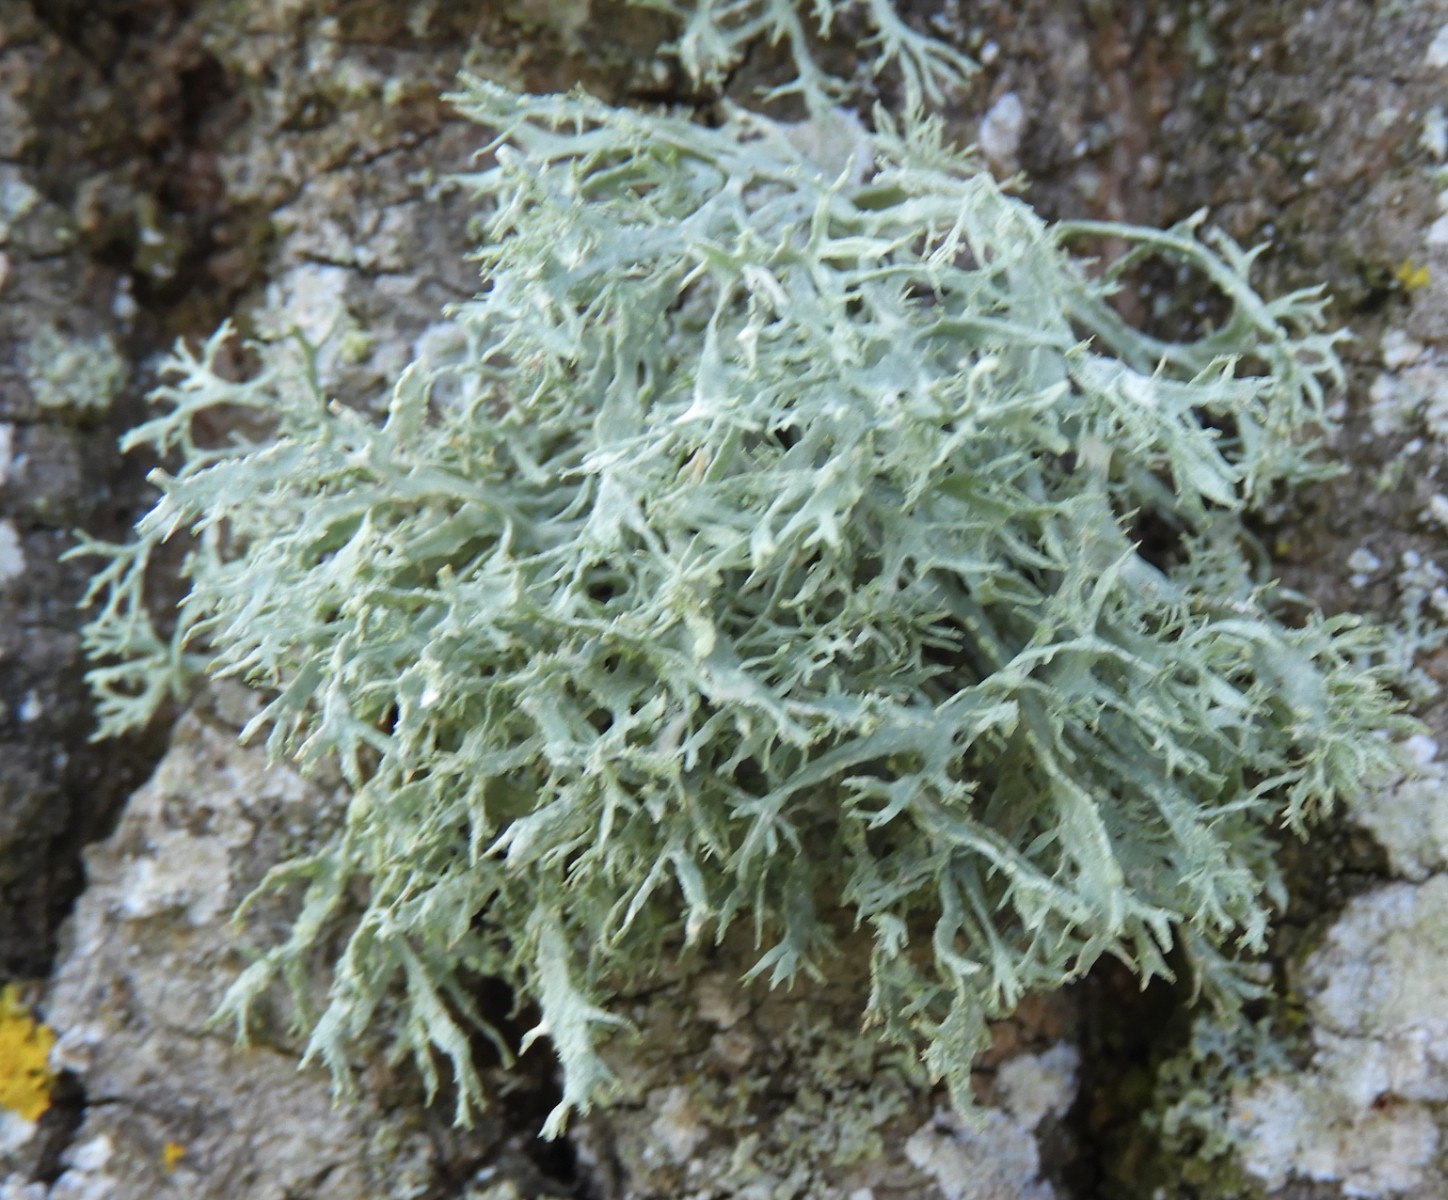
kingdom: Fungi
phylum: Ascomycota
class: Lecanoromycetes
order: Lecanorales
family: Parmeliaceae
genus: Evernia
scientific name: Evernia prunastri
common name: almindelig slåenlav
